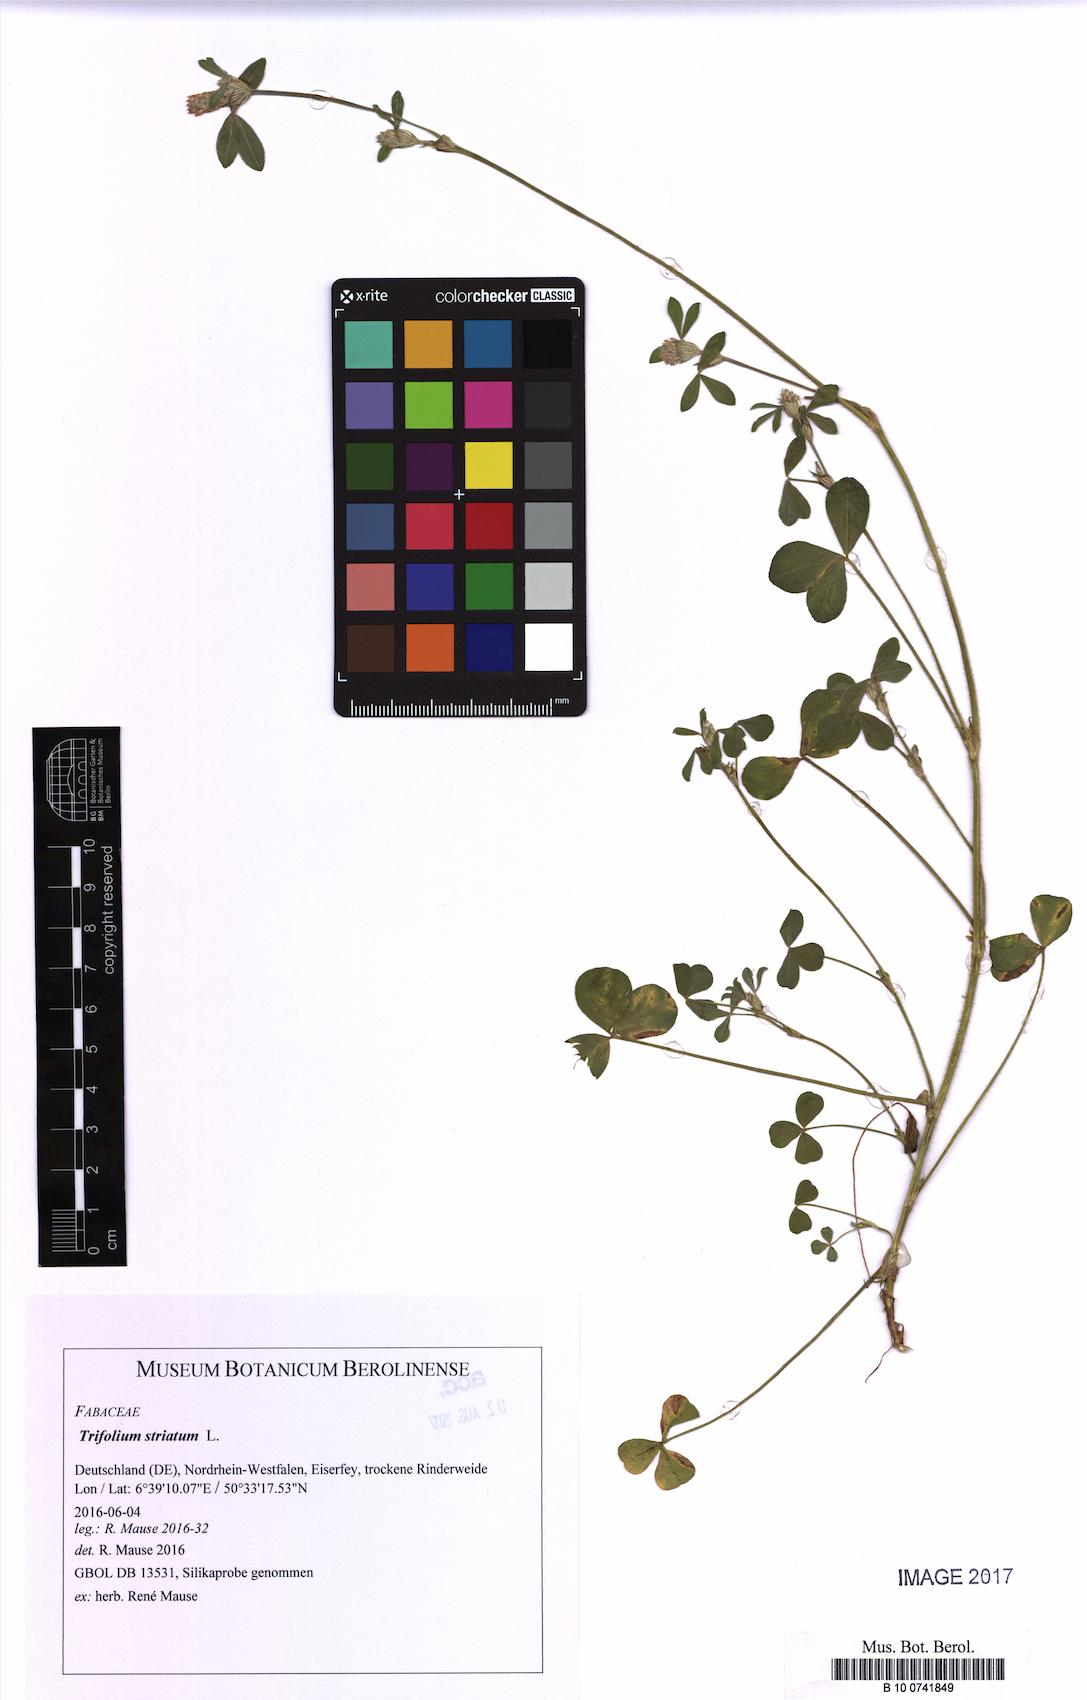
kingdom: Plantae
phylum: Tracheophyta
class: Magnoliopsida
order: Fabales
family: Fabaceae
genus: Trifolium
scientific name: Trifolium striatum
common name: Knotted clover
